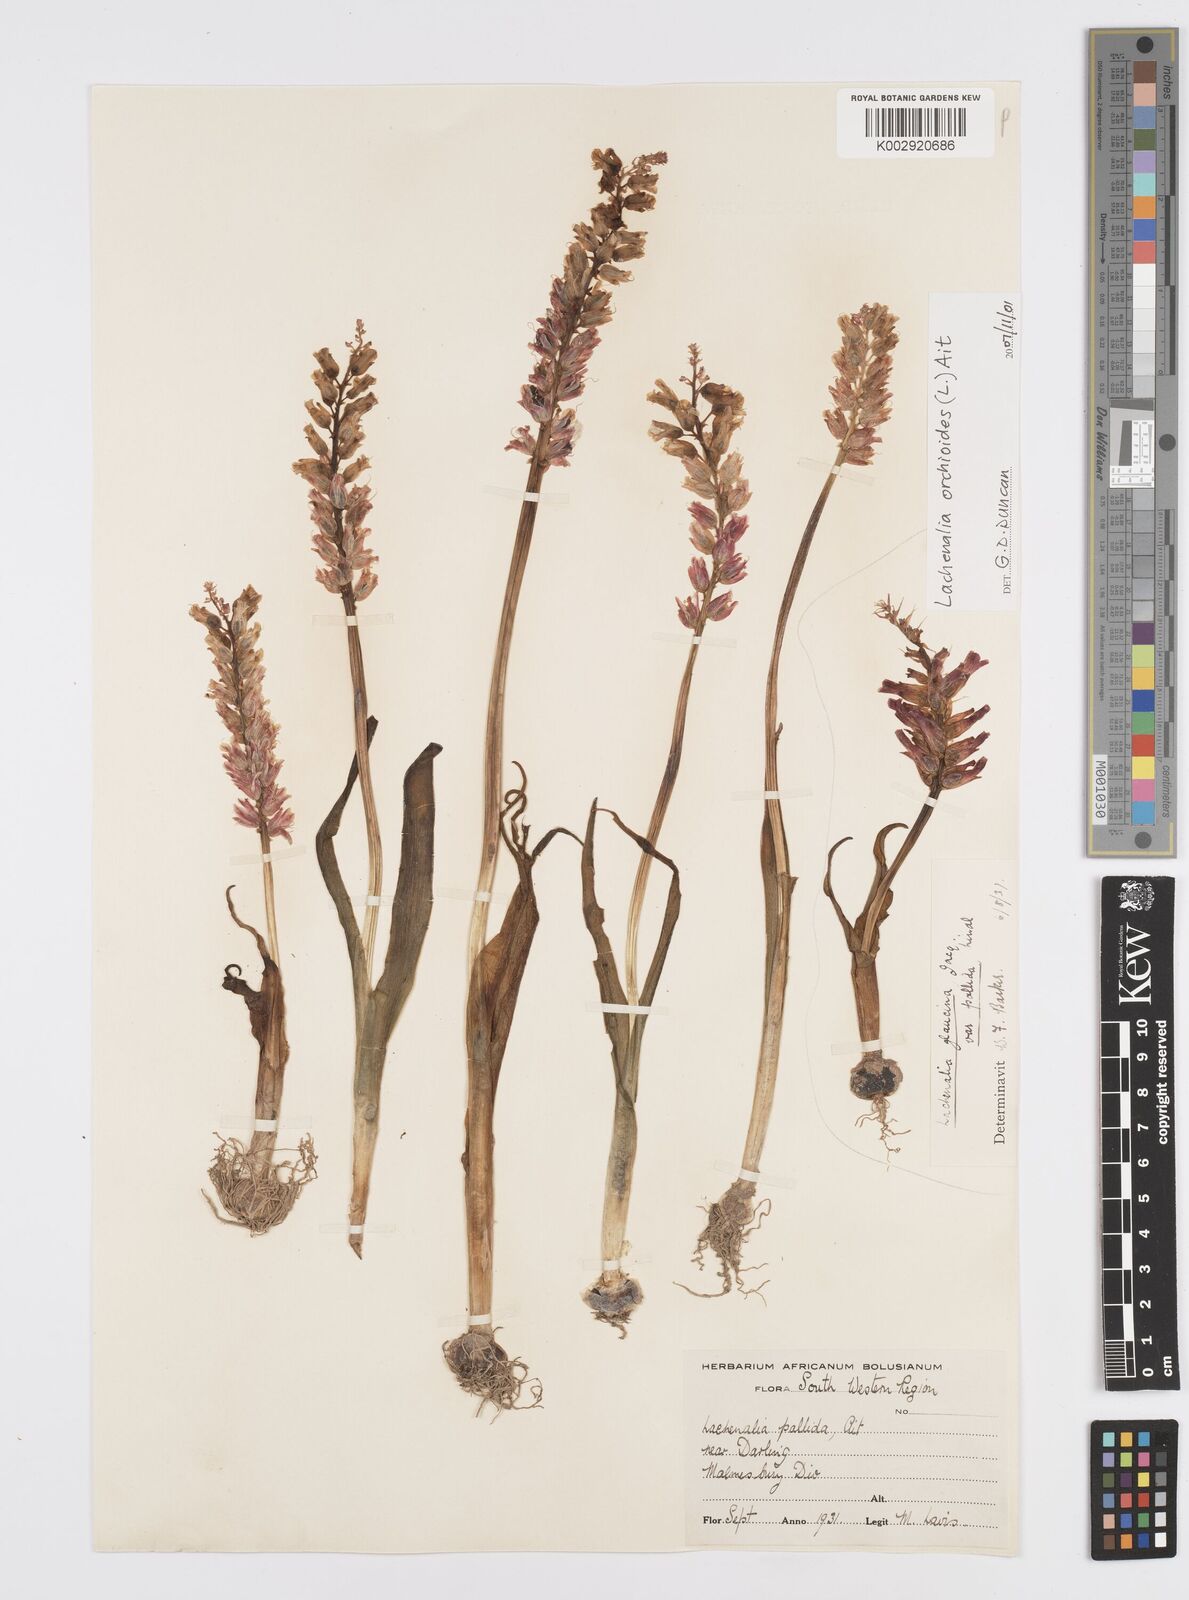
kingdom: Plantae
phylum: Tracheophyta
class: Liliopsida
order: Asparagales
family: Asparagaceae
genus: Lachenalia
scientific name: Lachenalia pallida
